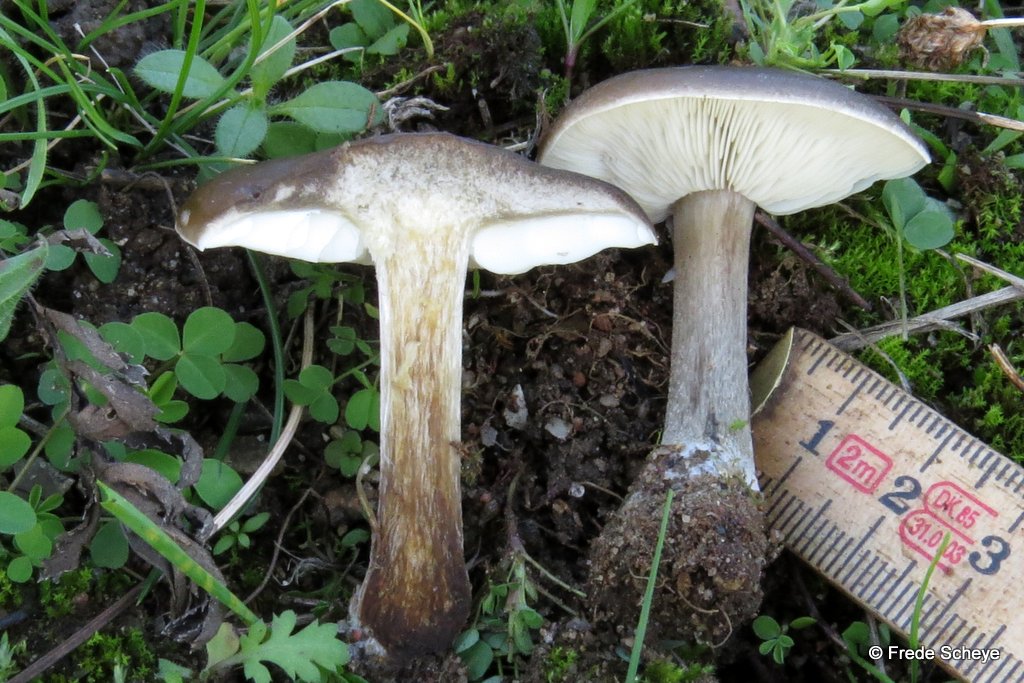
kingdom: Fungi
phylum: Basidiomycota
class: Agaricomycetes
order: Agaricales
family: Macrocystidiaceae
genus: Macrocystidia
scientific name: Macrocystidia cucumis
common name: agurkehat
